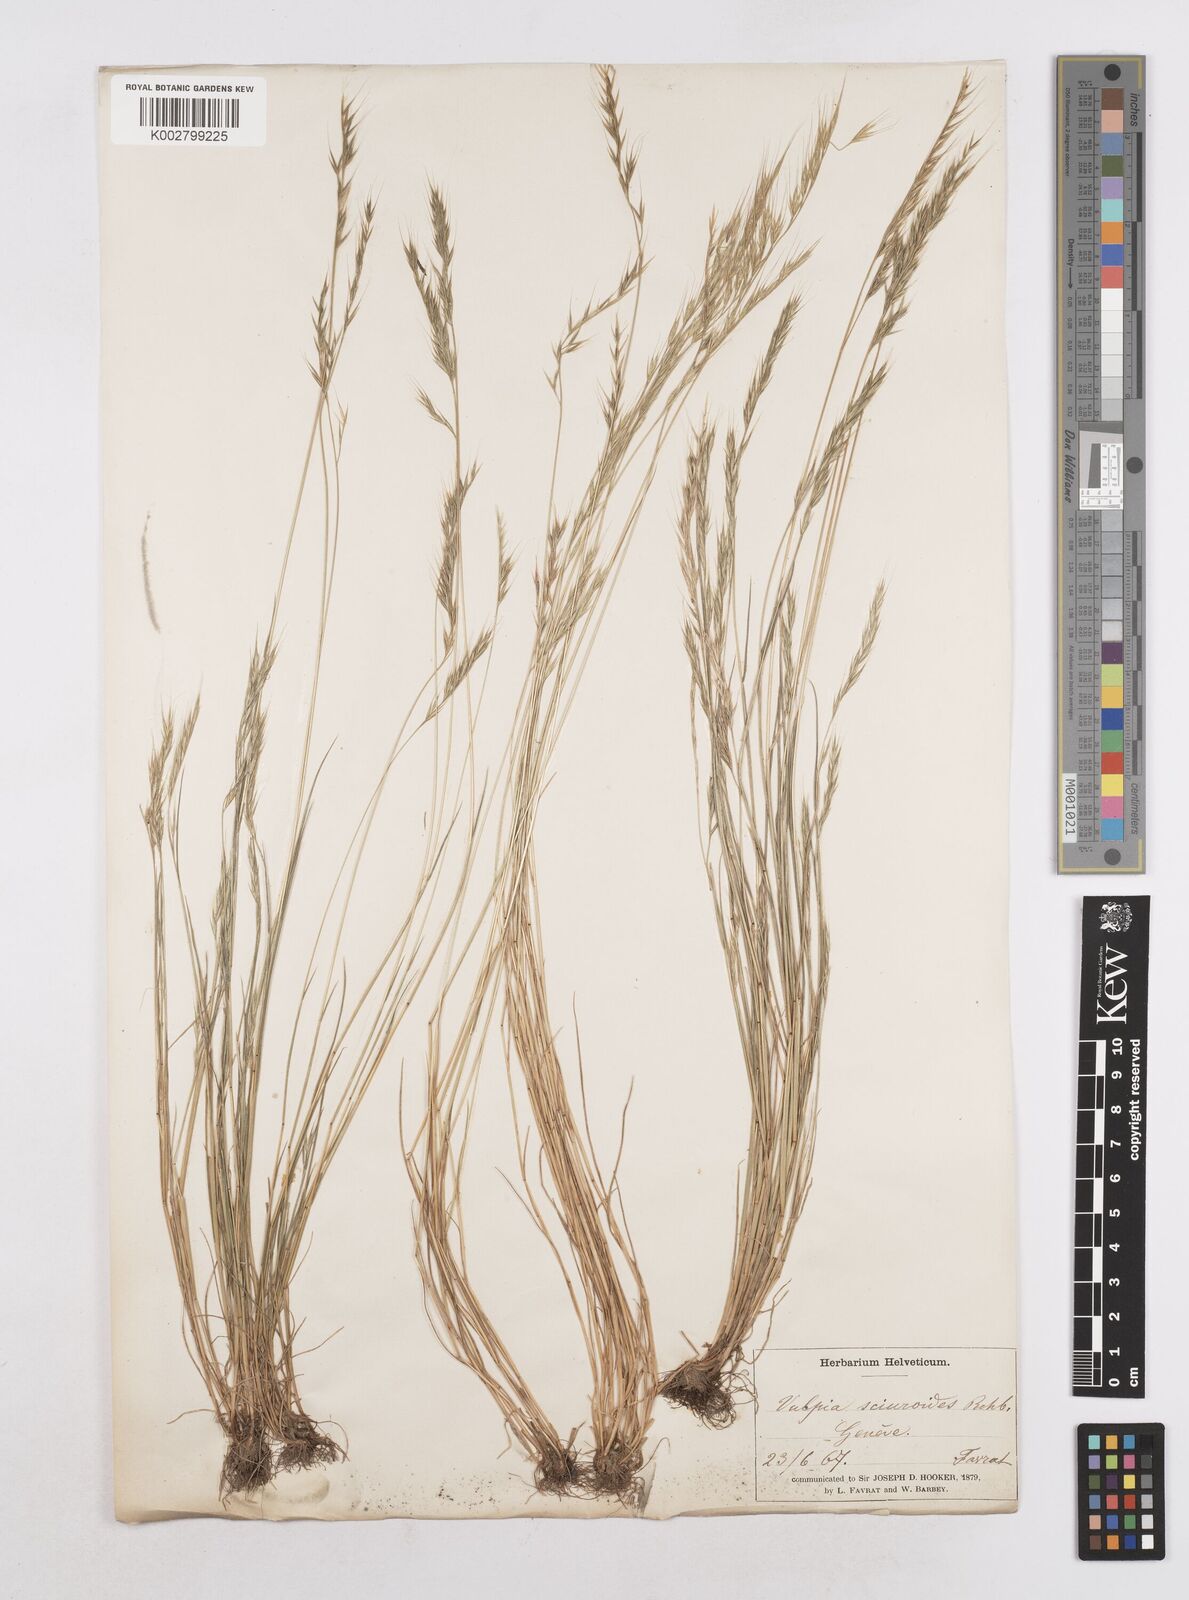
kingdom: Plantae
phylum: Tracheophyta
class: Liliopsida
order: Poales
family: Poaceae
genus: Festuca
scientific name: Festuca bromoides
